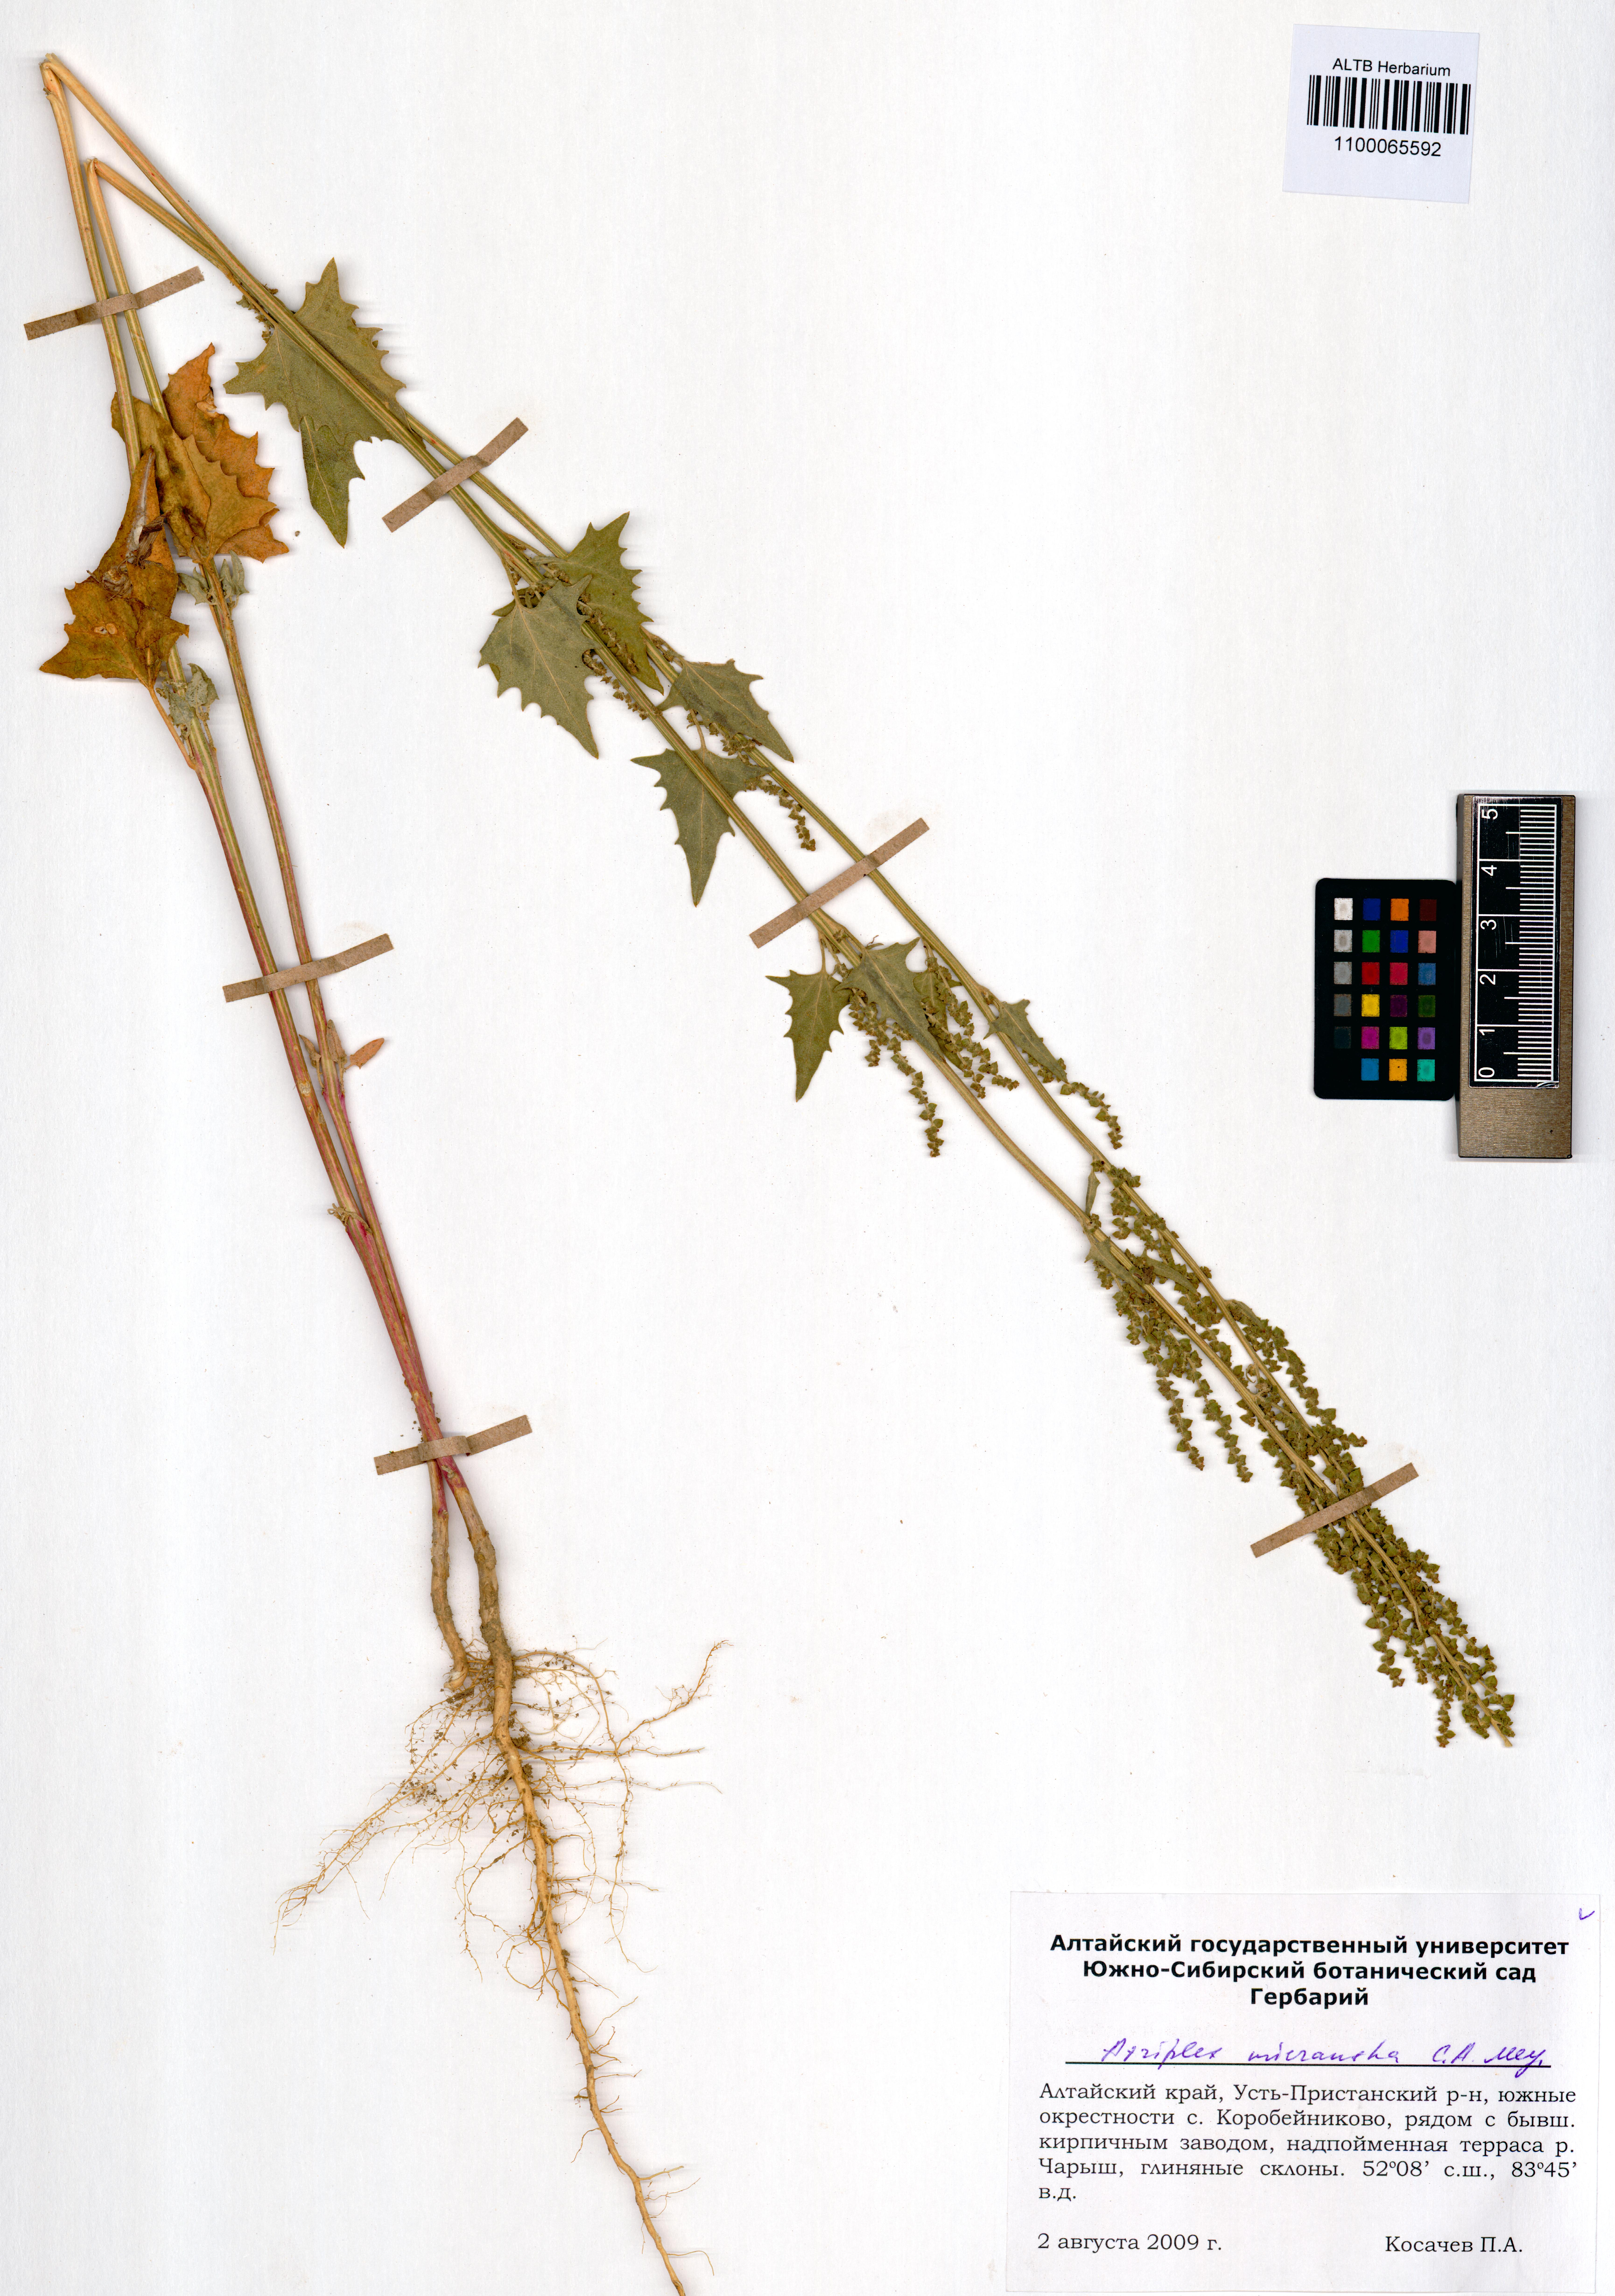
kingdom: Plantae
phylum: Tracheophyta
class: Magnoliopsida
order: Caryophyllales
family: Amaranthaceae
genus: Atriplex
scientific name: Atriplex micrantha
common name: Twoscale saltbush
